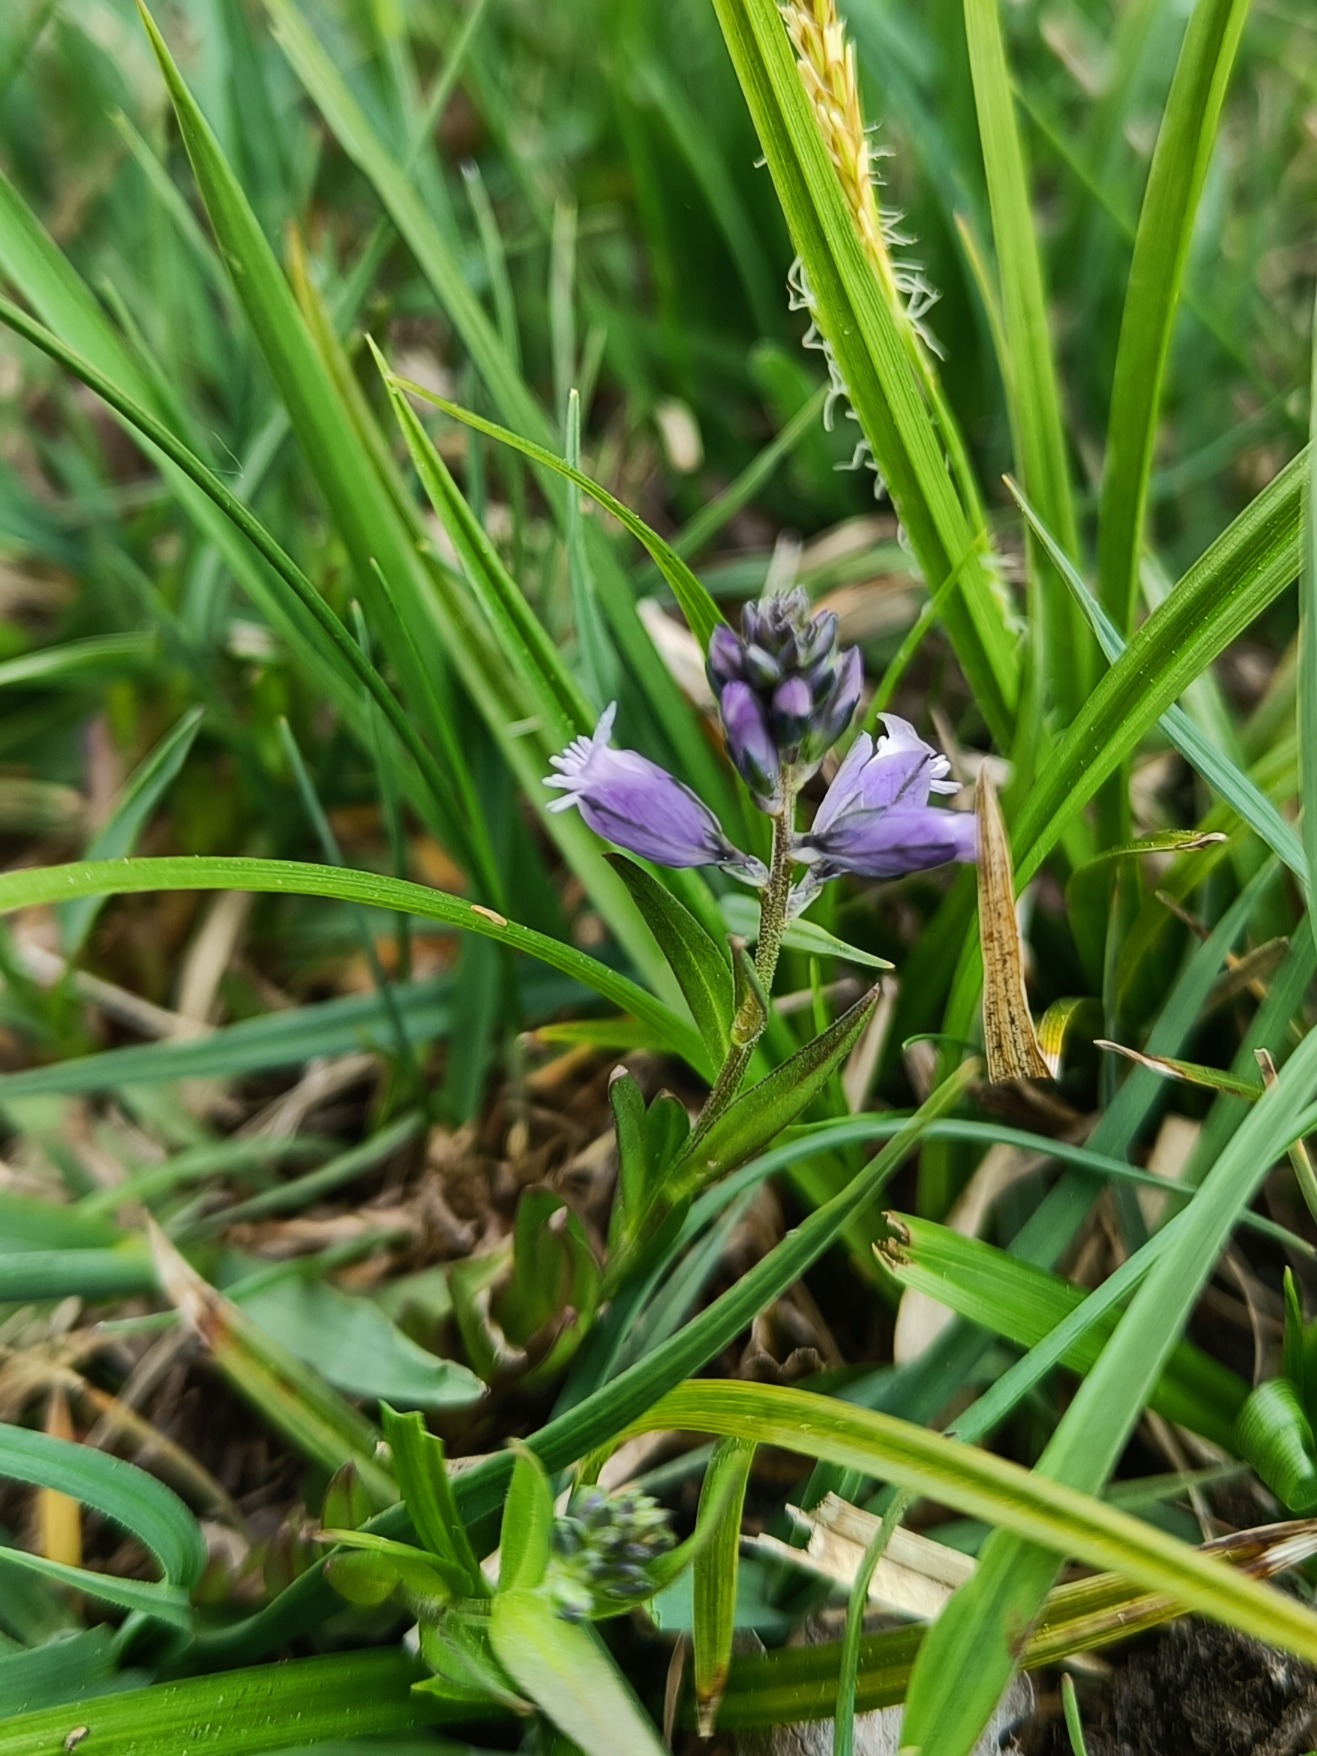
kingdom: Plantae
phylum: Tracheophyta
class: Magnoliopsida
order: Fabales
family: Polygalaceae
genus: Polygala
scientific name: Polygala vulgaris
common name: Almindelig mælkeurt
